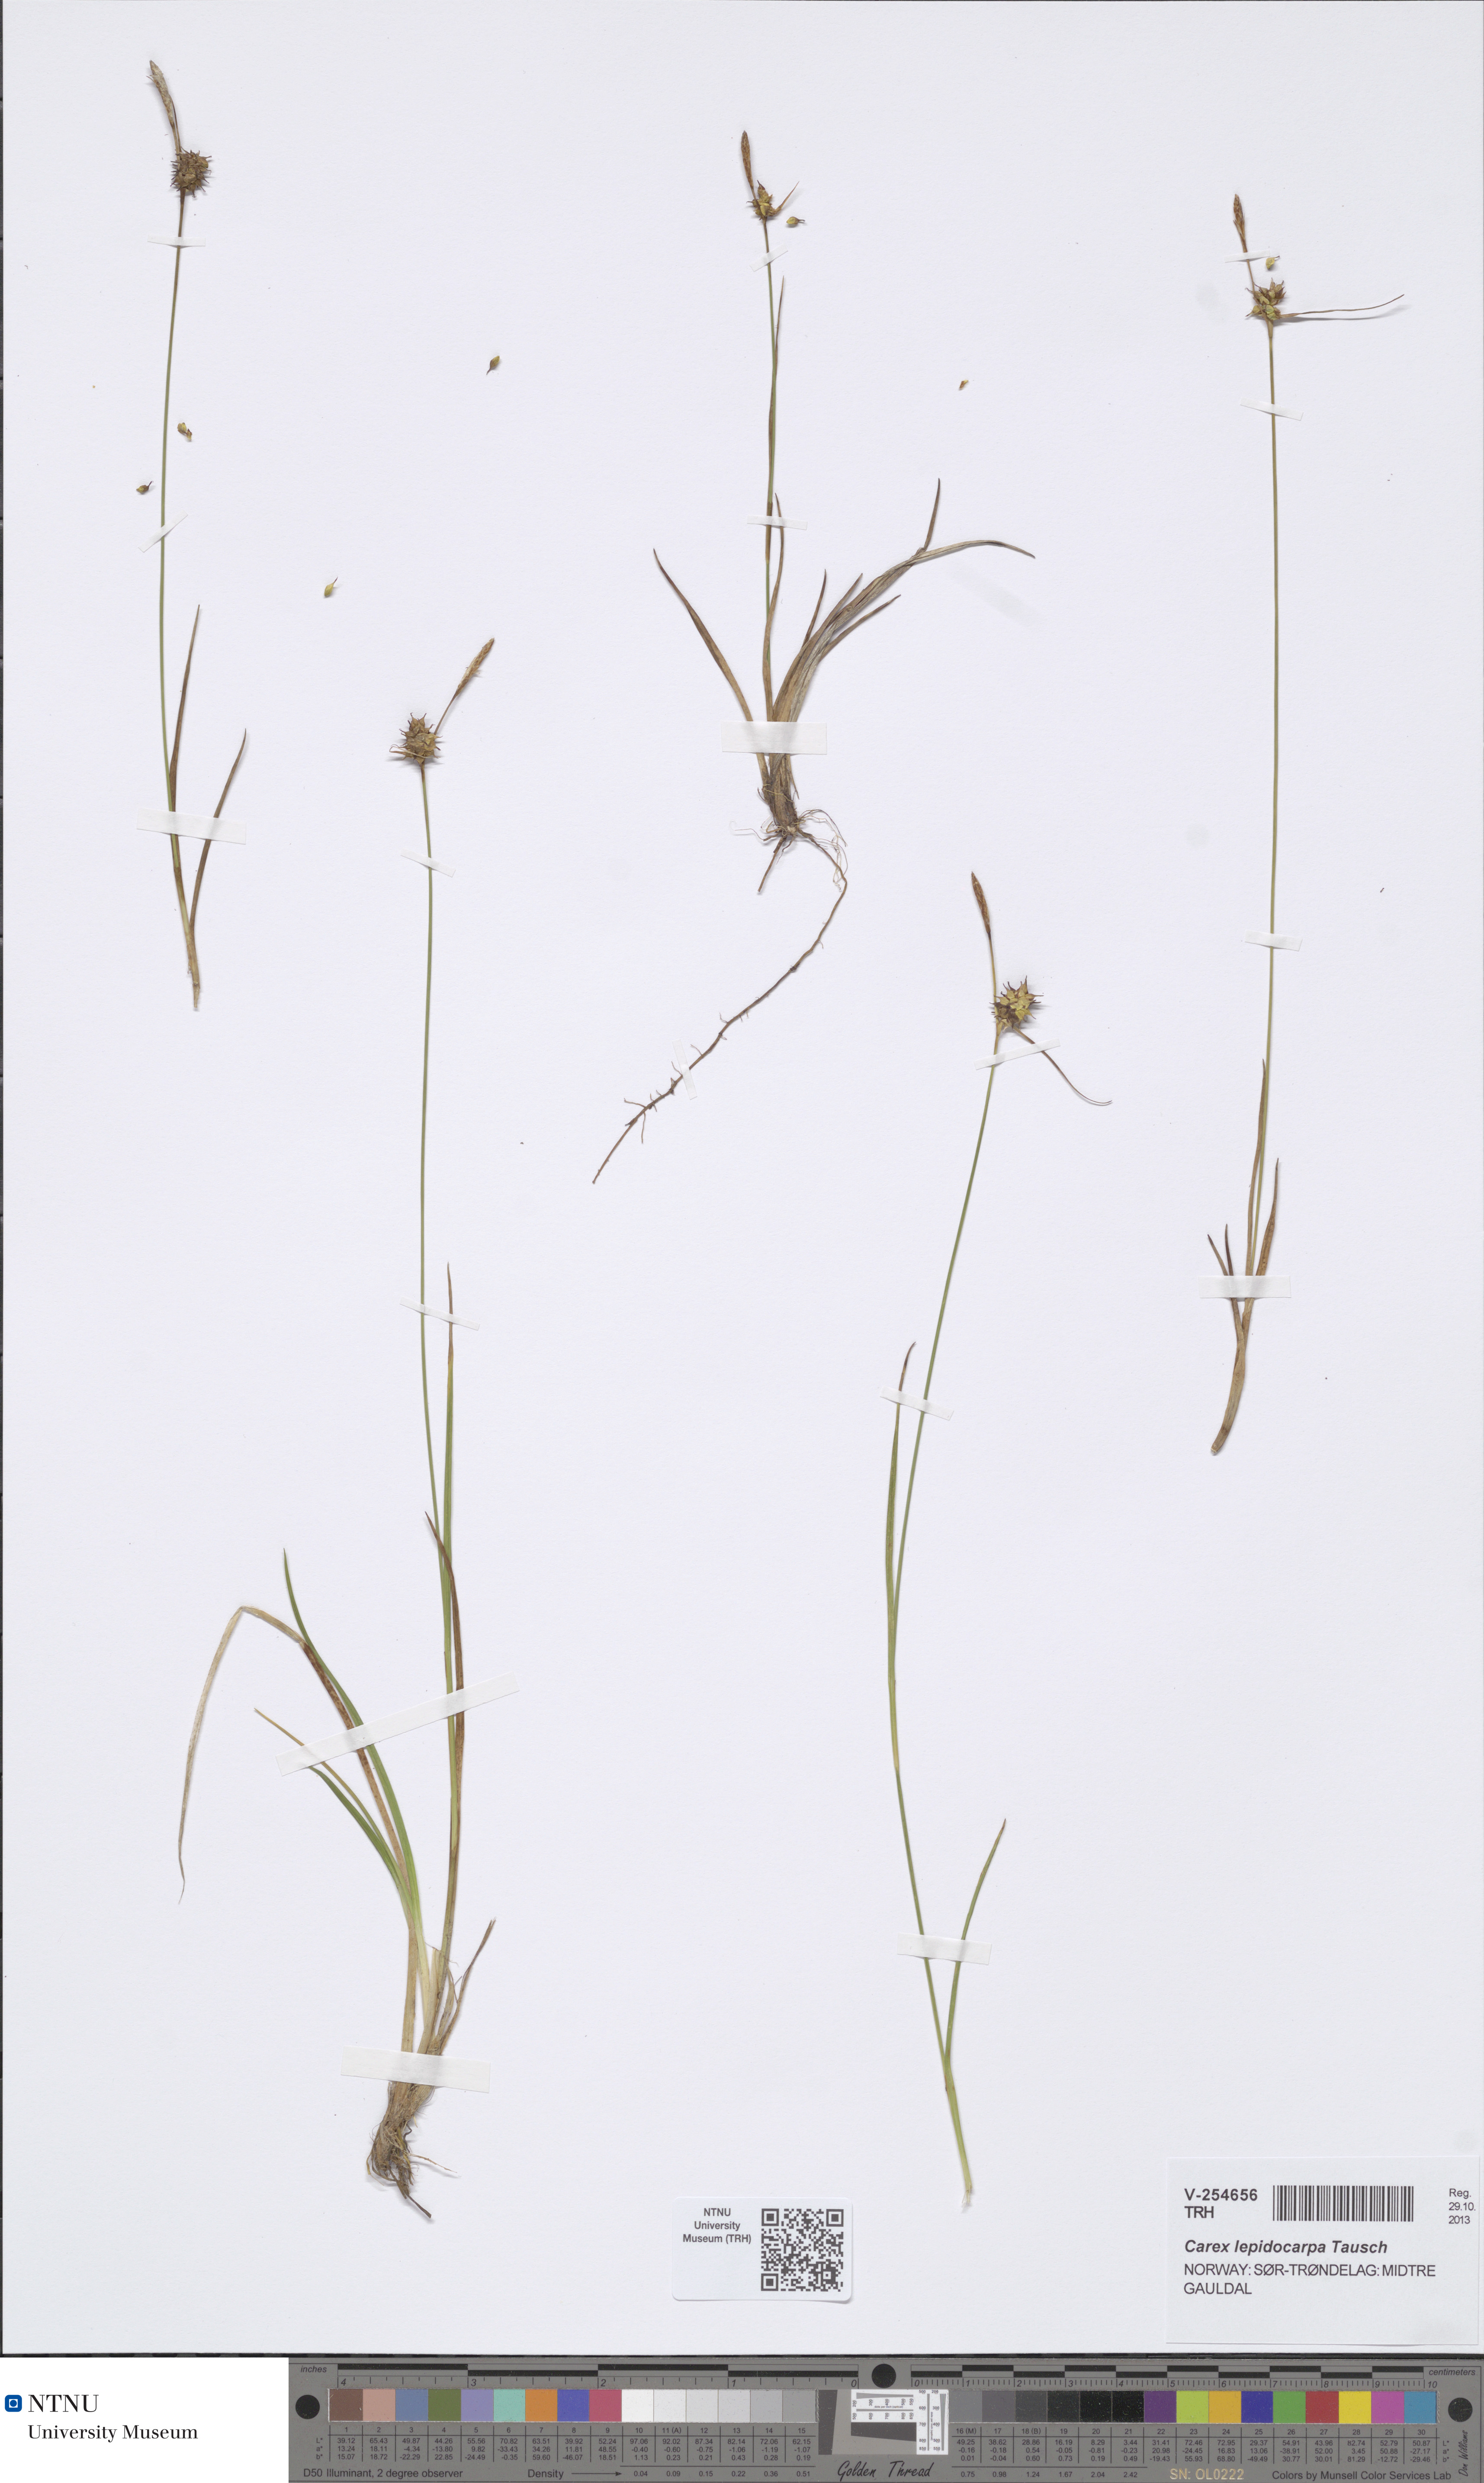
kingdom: Plantae
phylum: Tracheophyta
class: Liliopsida
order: Poales
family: Cyperaceae
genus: Carex
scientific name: Carex lepidocarpa
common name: Long-stalked yellow-sedge
